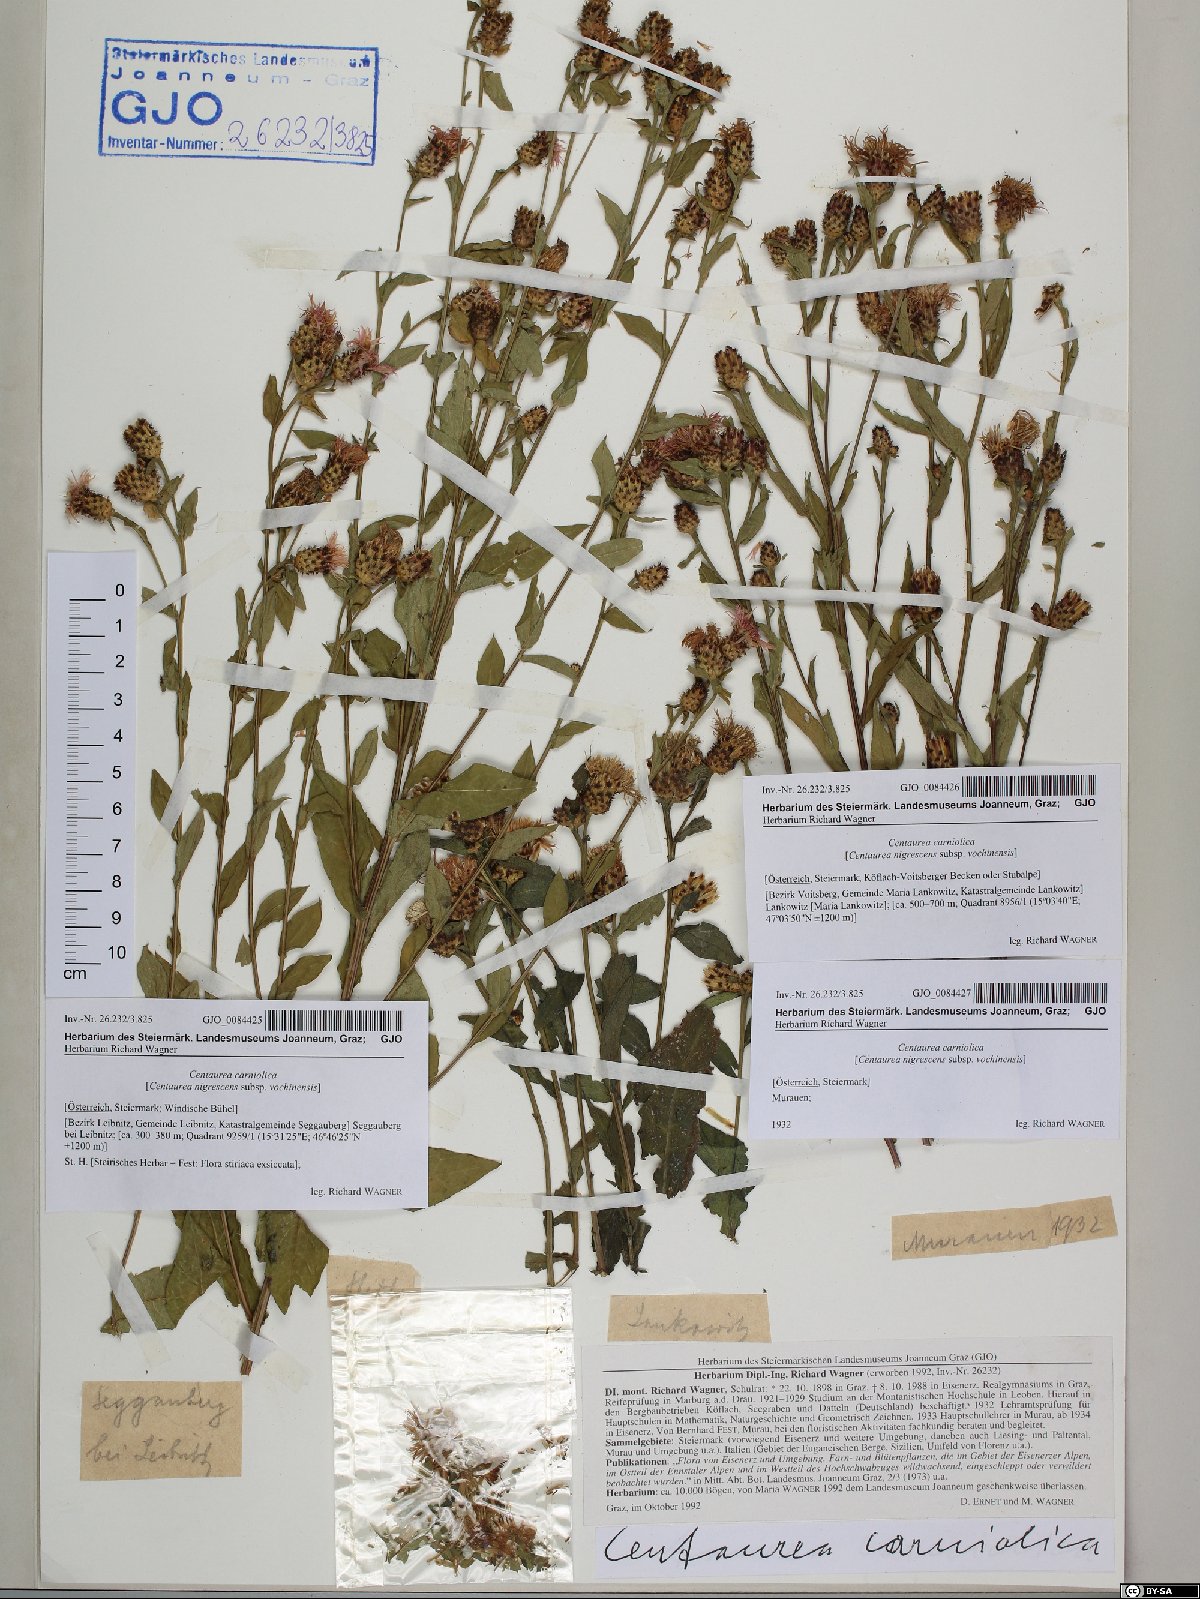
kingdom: Plantae
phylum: Tracheophyta
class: Magnoliopsida
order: Asterales
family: Asteraceae
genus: Centaurea
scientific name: Centaurea carniolica
